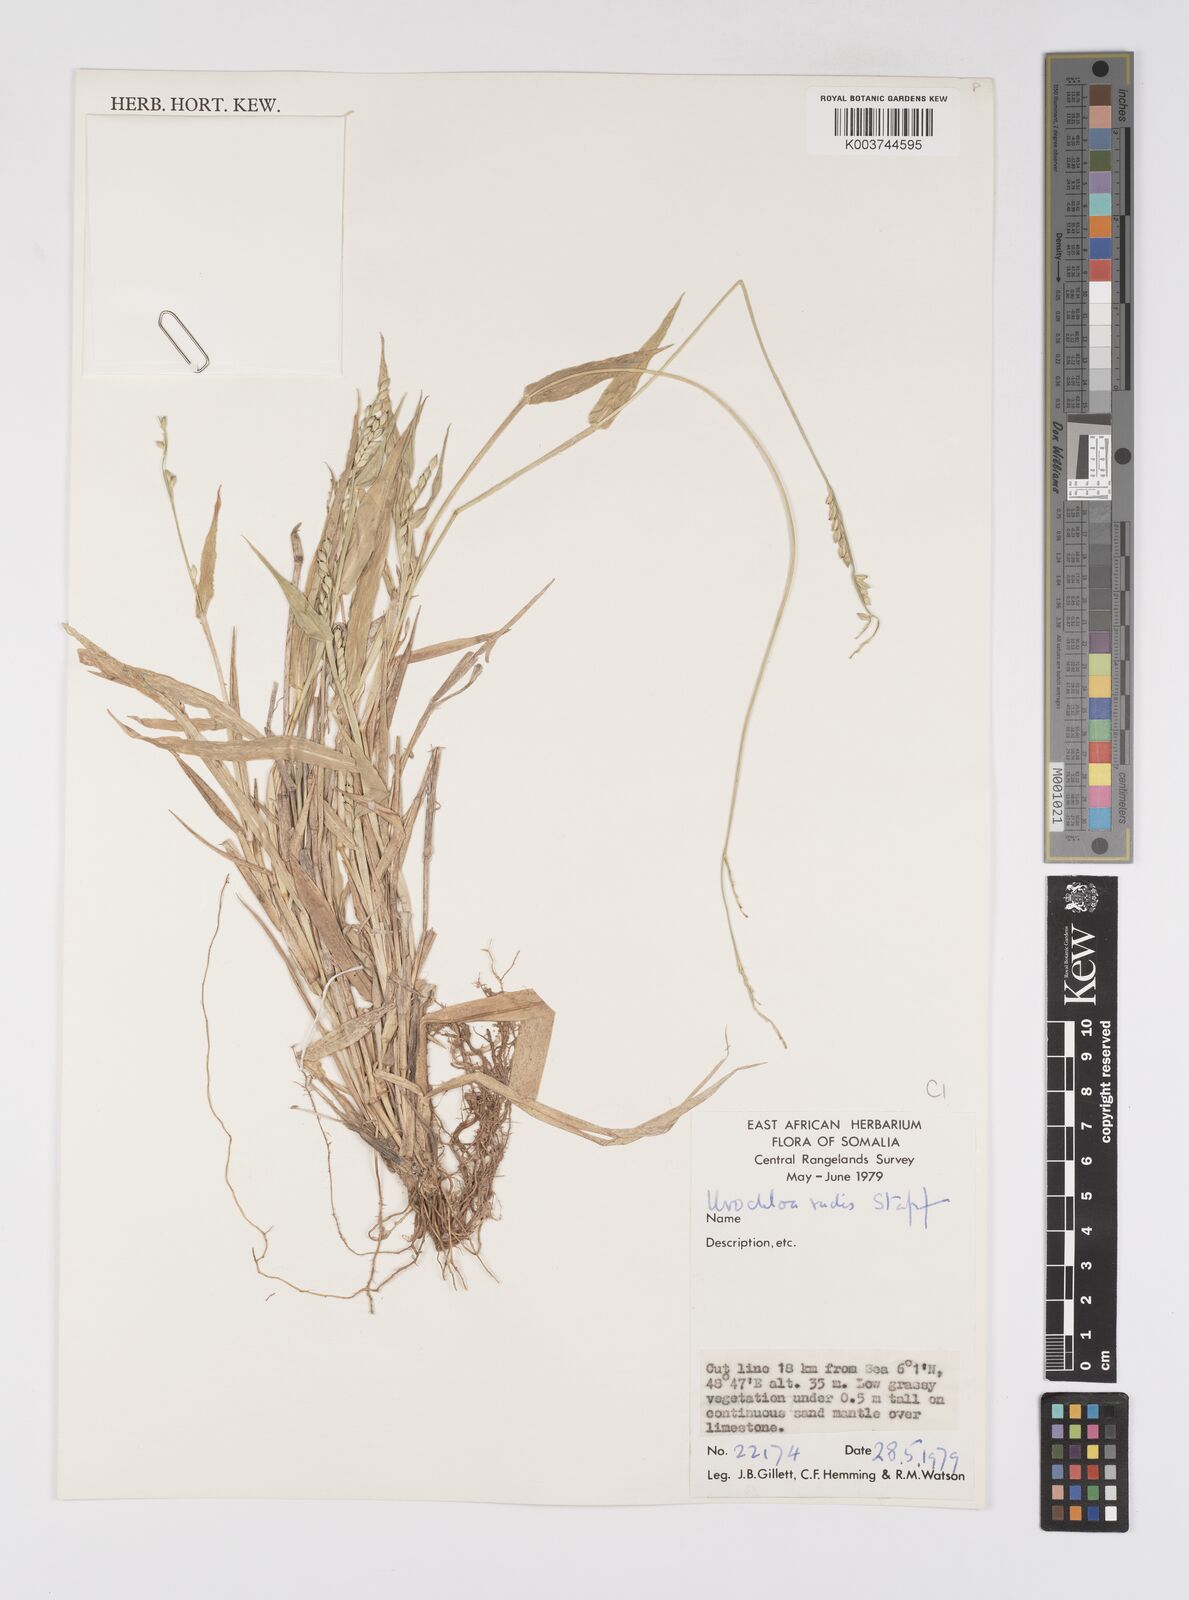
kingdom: Plantae
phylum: Tracheophyta
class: Liliopsida
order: Poales
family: Poaceae
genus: Urochloa
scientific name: Urochloa rudis
